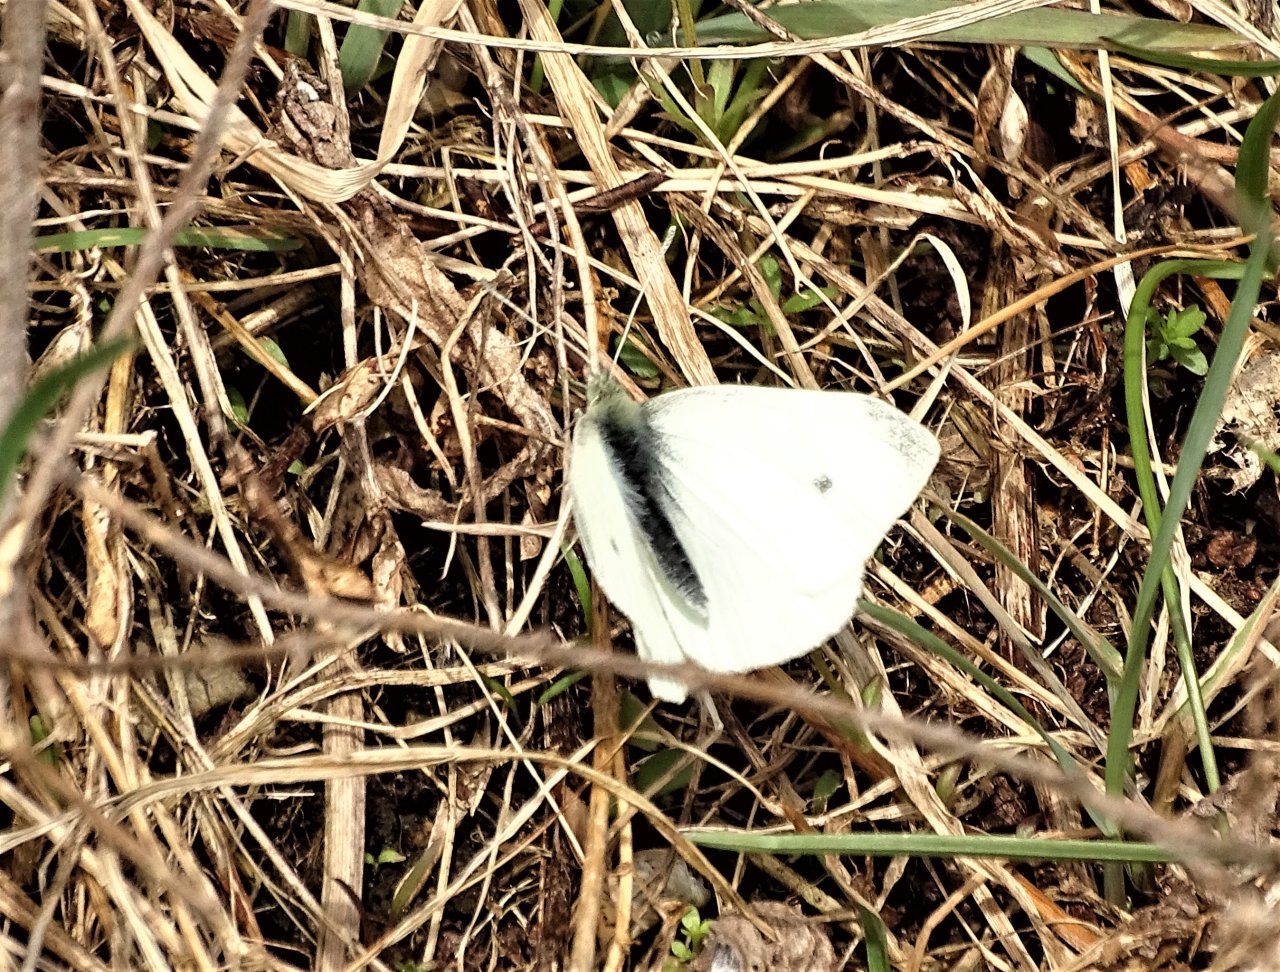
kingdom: Animalia
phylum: Arthropoda
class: Insecta
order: Lepidoptera
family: Pieridae
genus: Pieris
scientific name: Pieris rapae
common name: Cabbage White
